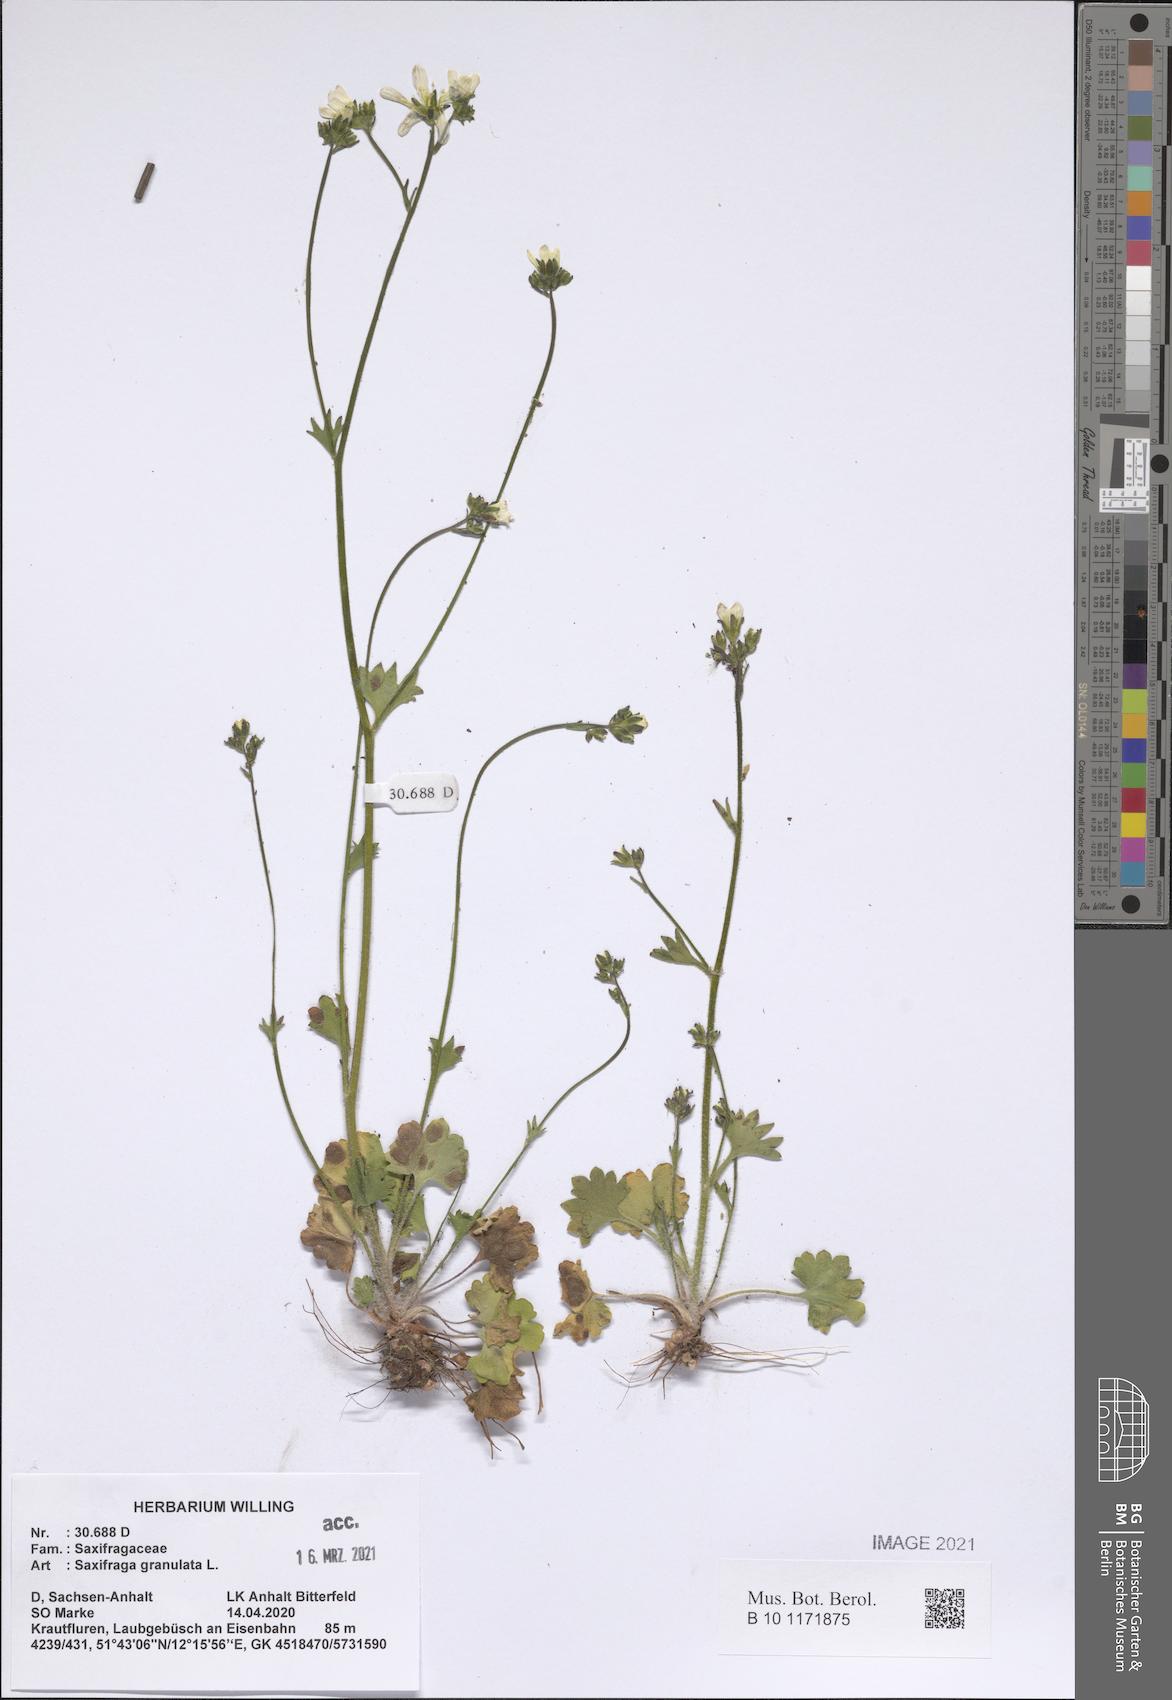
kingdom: Plantae
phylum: Tracheophyta
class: Magnoliopsida
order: Saxifragales
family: Saxifragaceae
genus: Saxifraga
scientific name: Saxifraga granulata
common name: Meadow saxifrage
